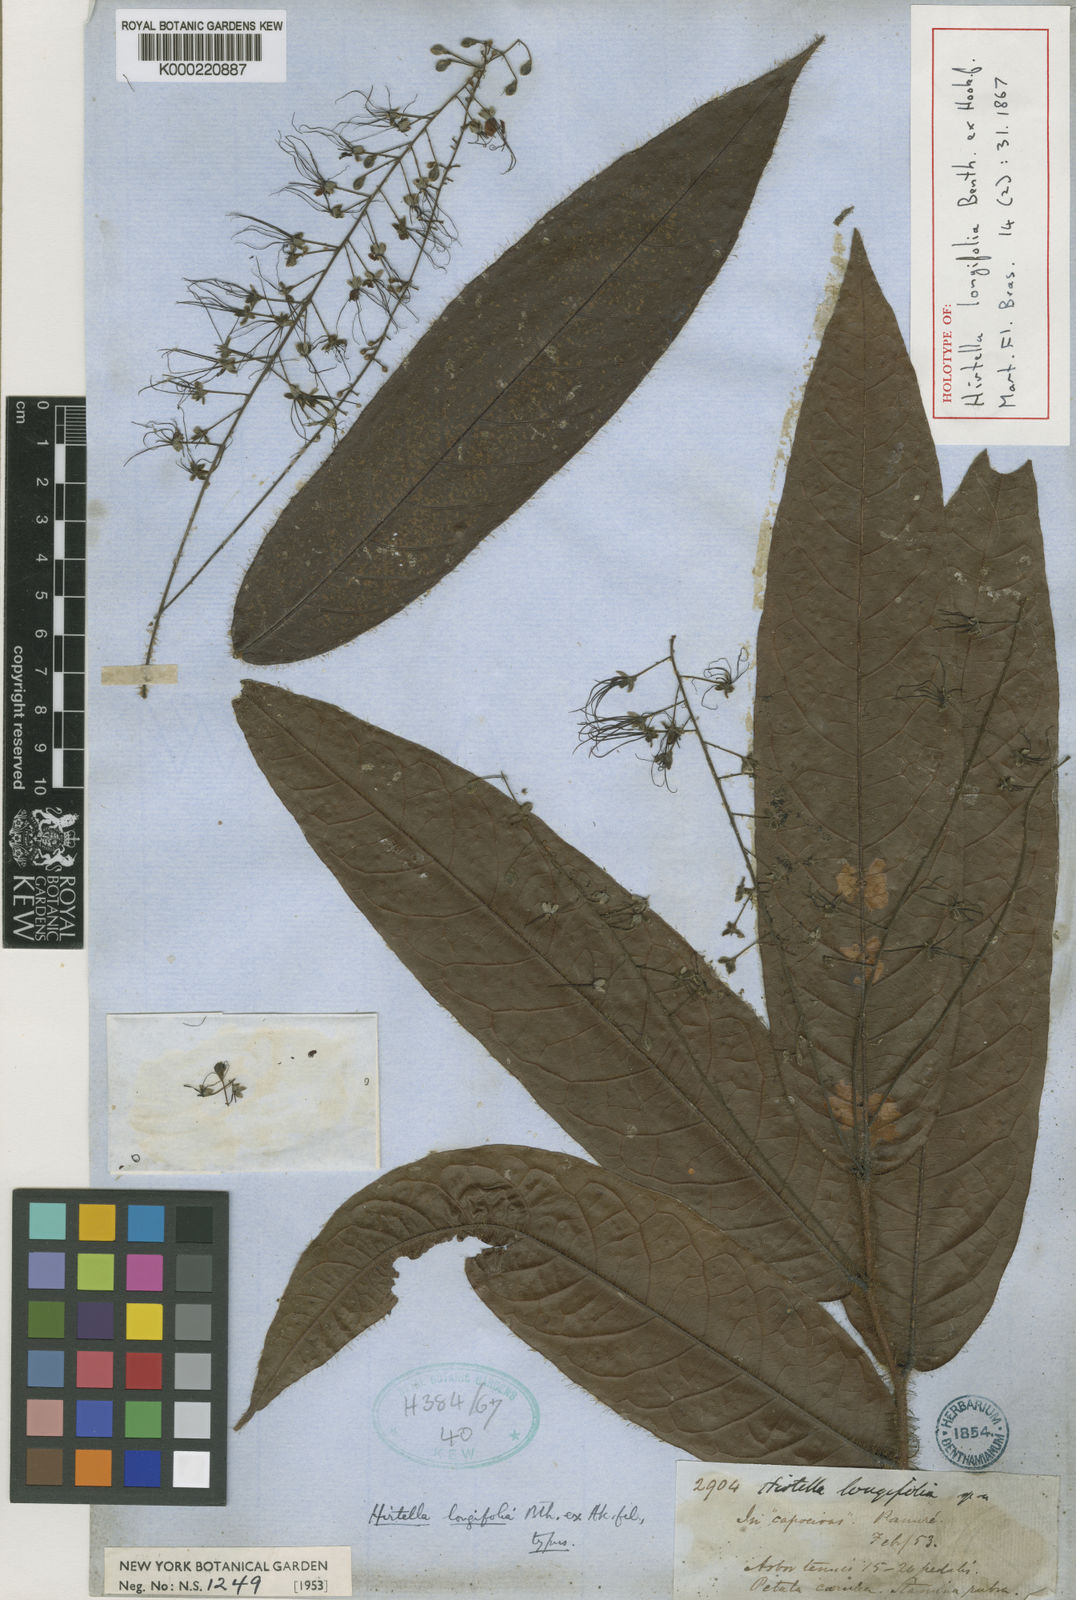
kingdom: Plantae
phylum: Tracheophyta
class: Magnoliopsida
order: Malpighiales
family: Chrysobalanaceae
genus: Hirtella
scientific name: Hirtella longifolia
